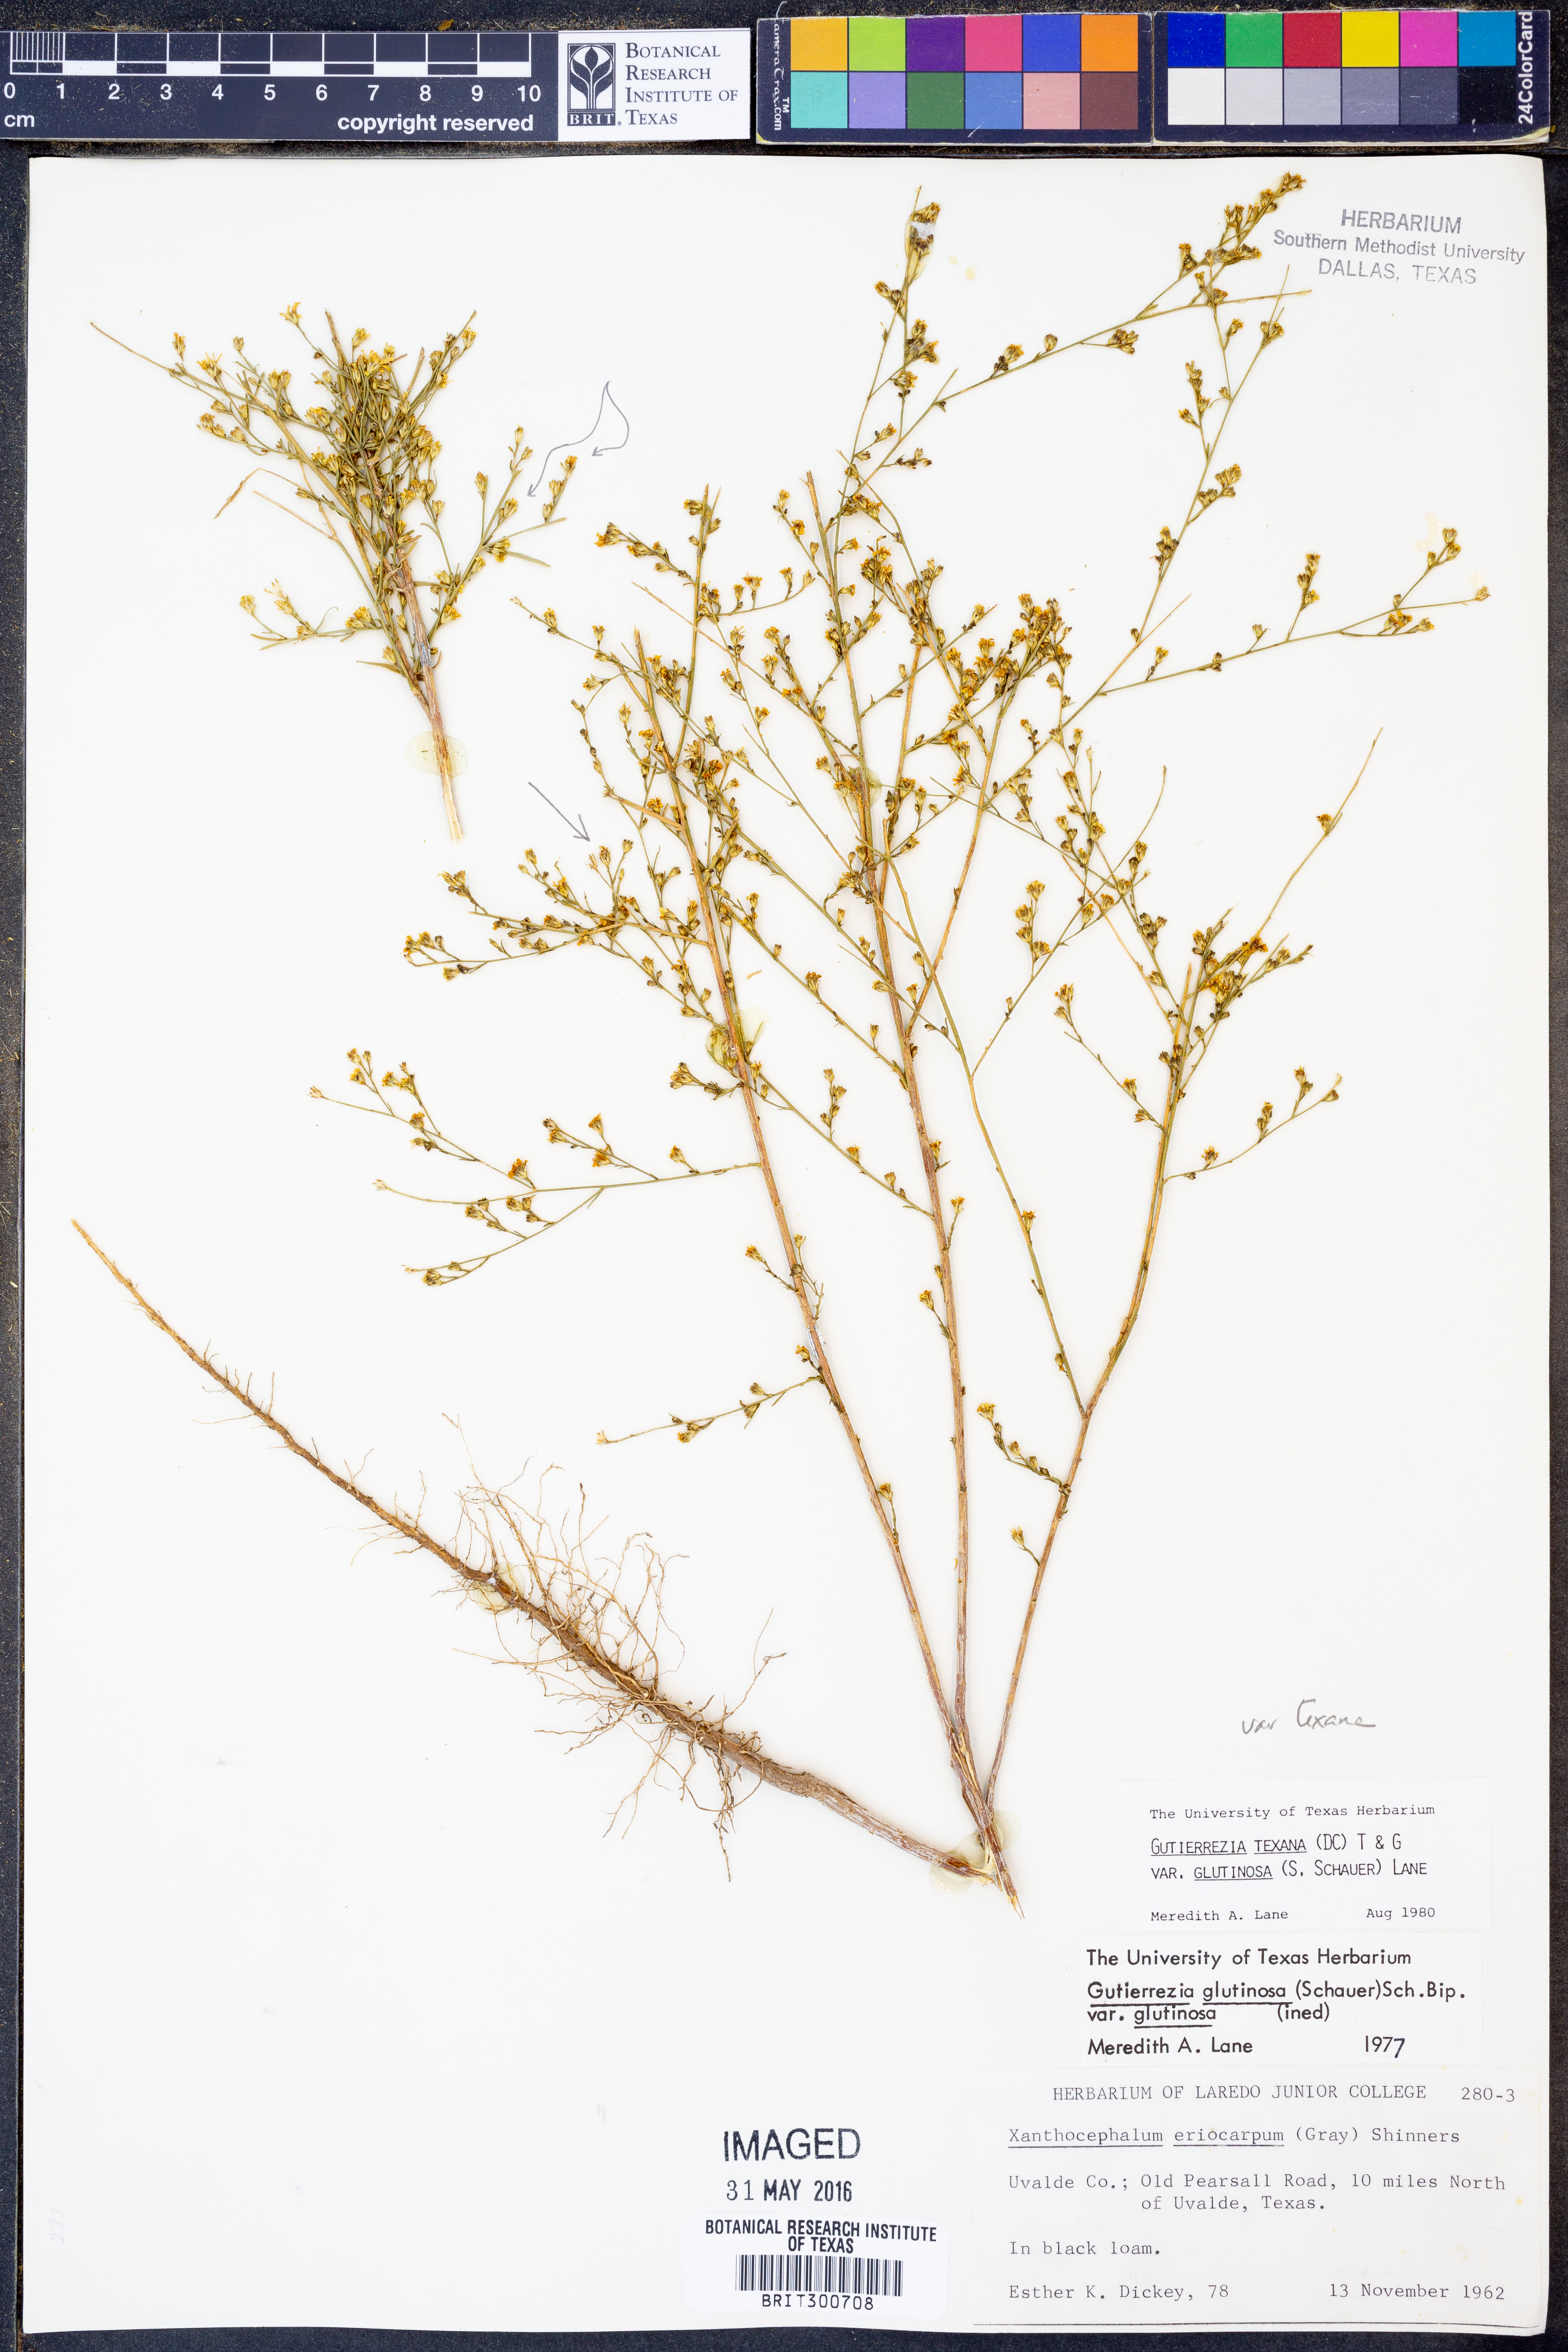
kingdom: Plantae
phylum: Tracheophyta
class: Magnoliopsida
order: Asterales
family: Asteraceae
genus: Gutierrezia
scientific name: Gutierrezia texana
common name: Texas snakeweed
